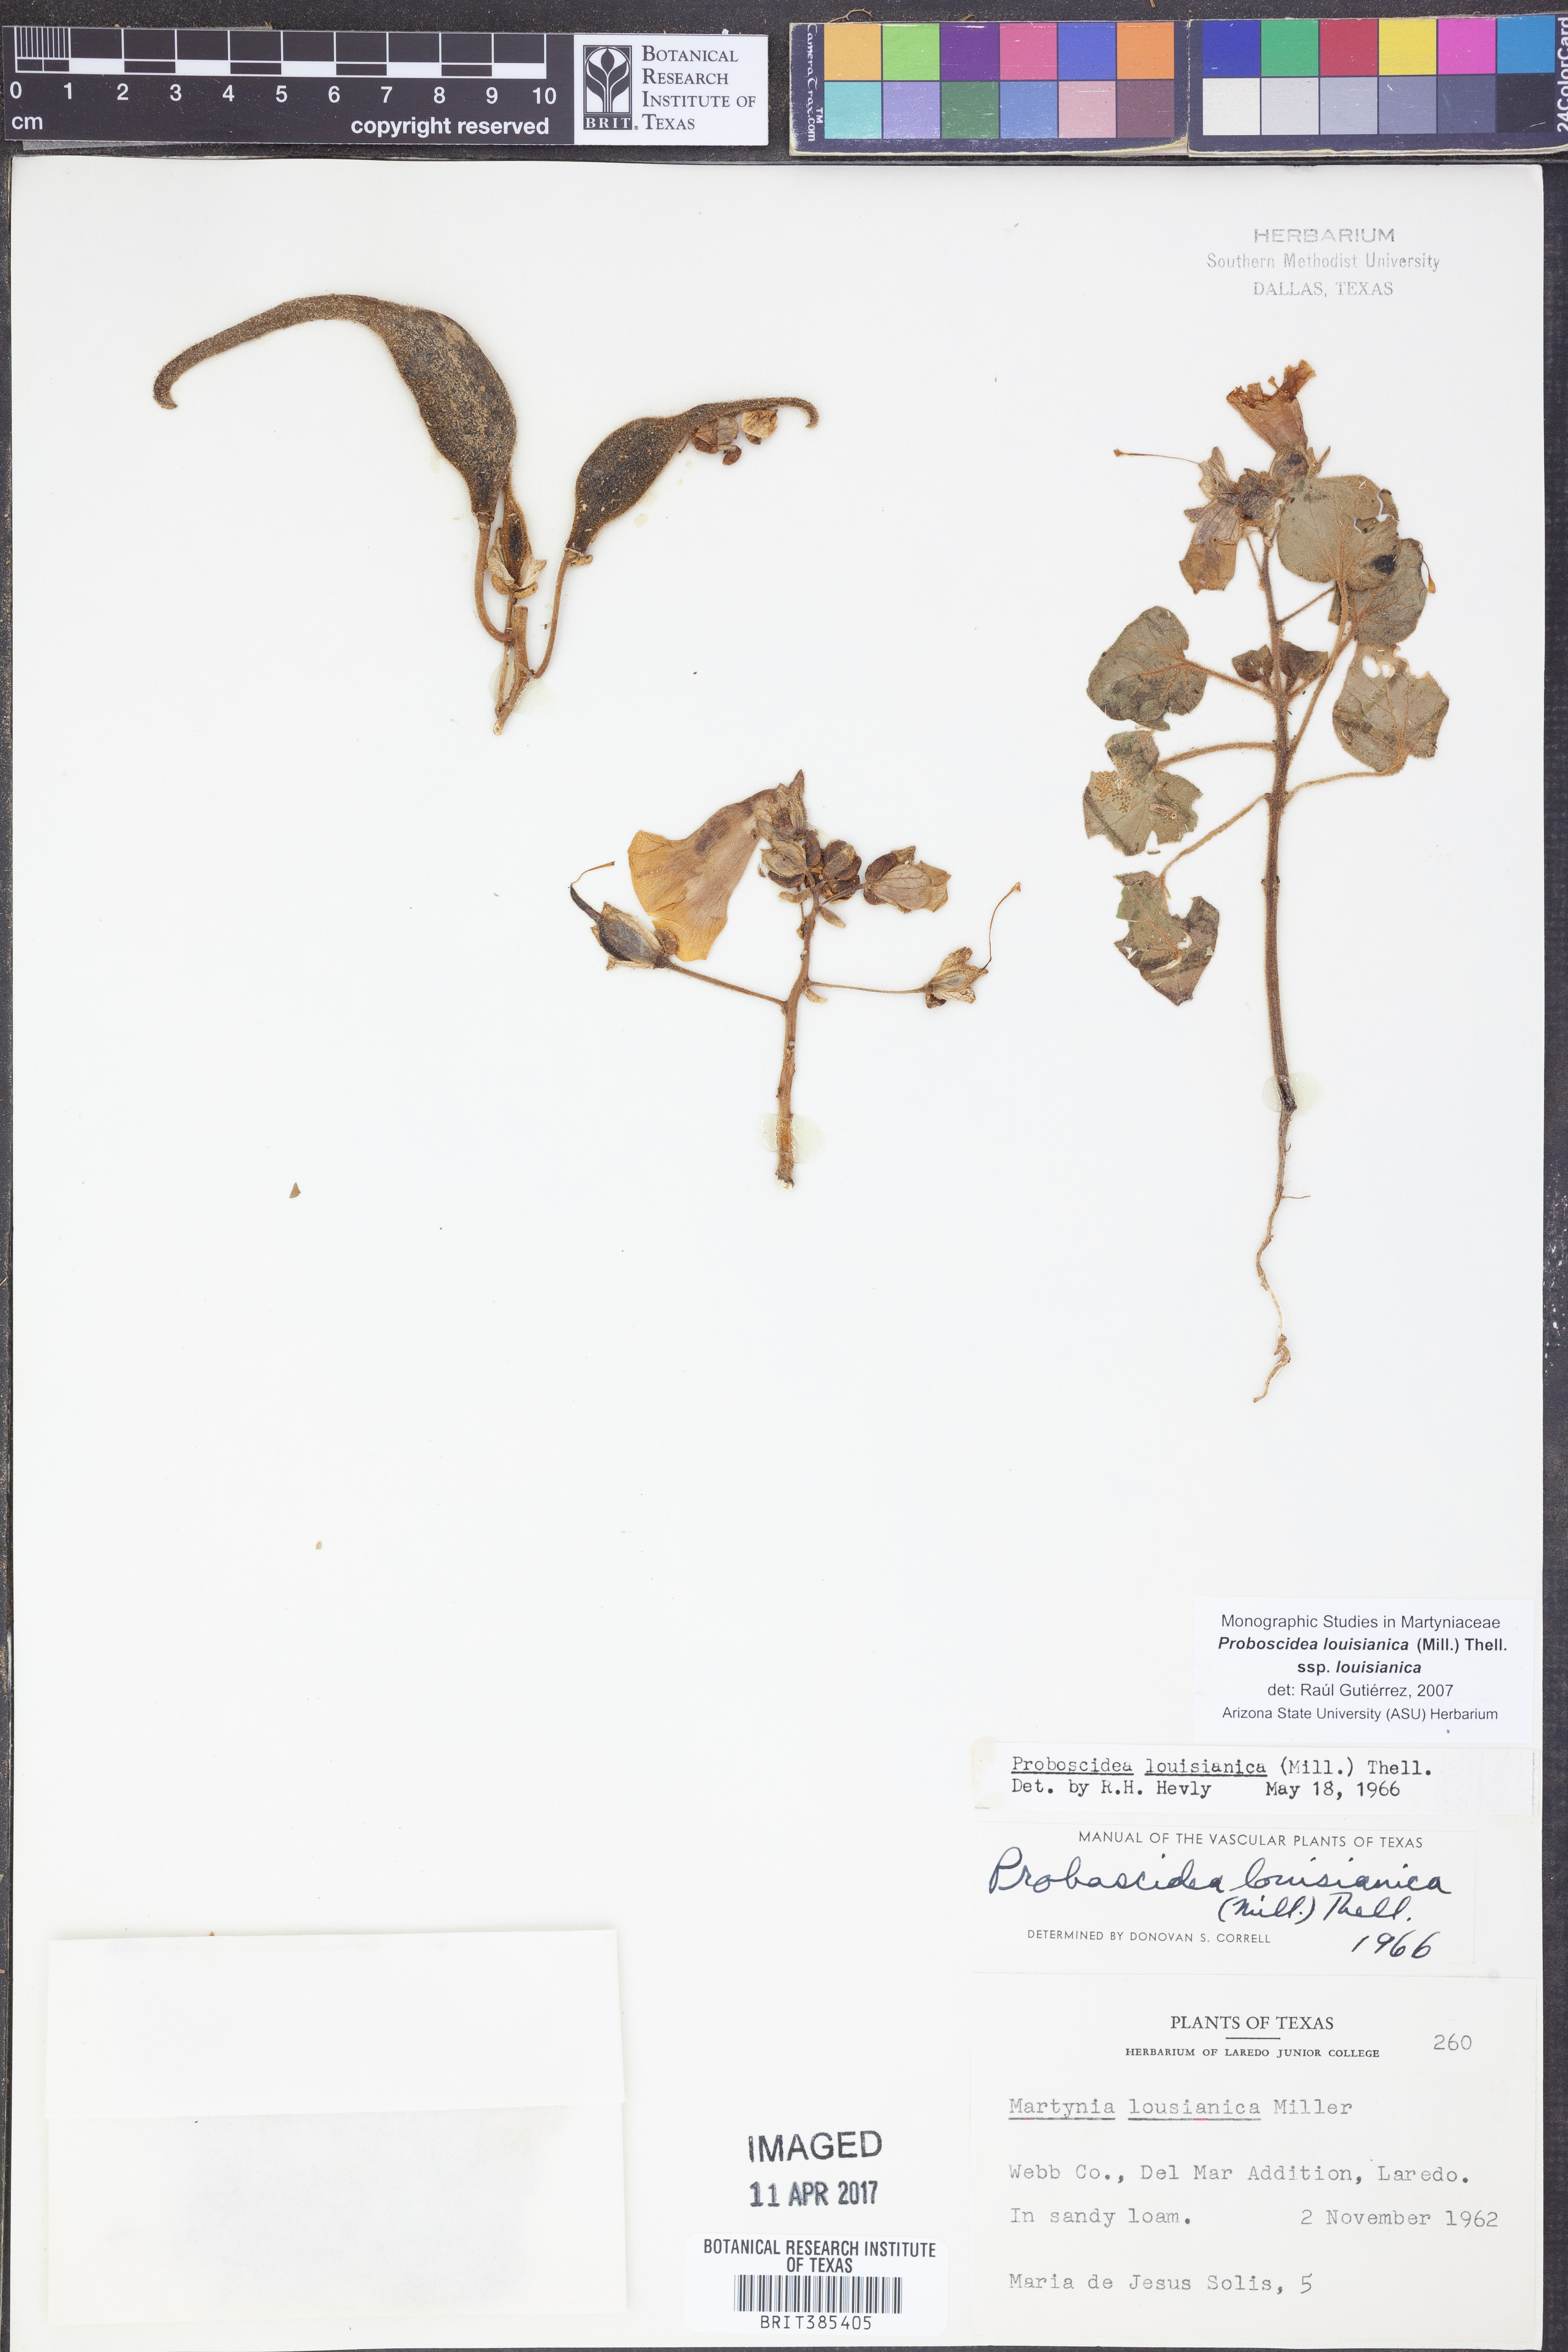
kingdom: Plantae
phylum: Tracheophyta
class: Magnoliopsida
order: Lamiales
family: Martyniaceae
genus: Proboscidea
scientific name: Proboscidea louisianica
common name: Elephant tusks
